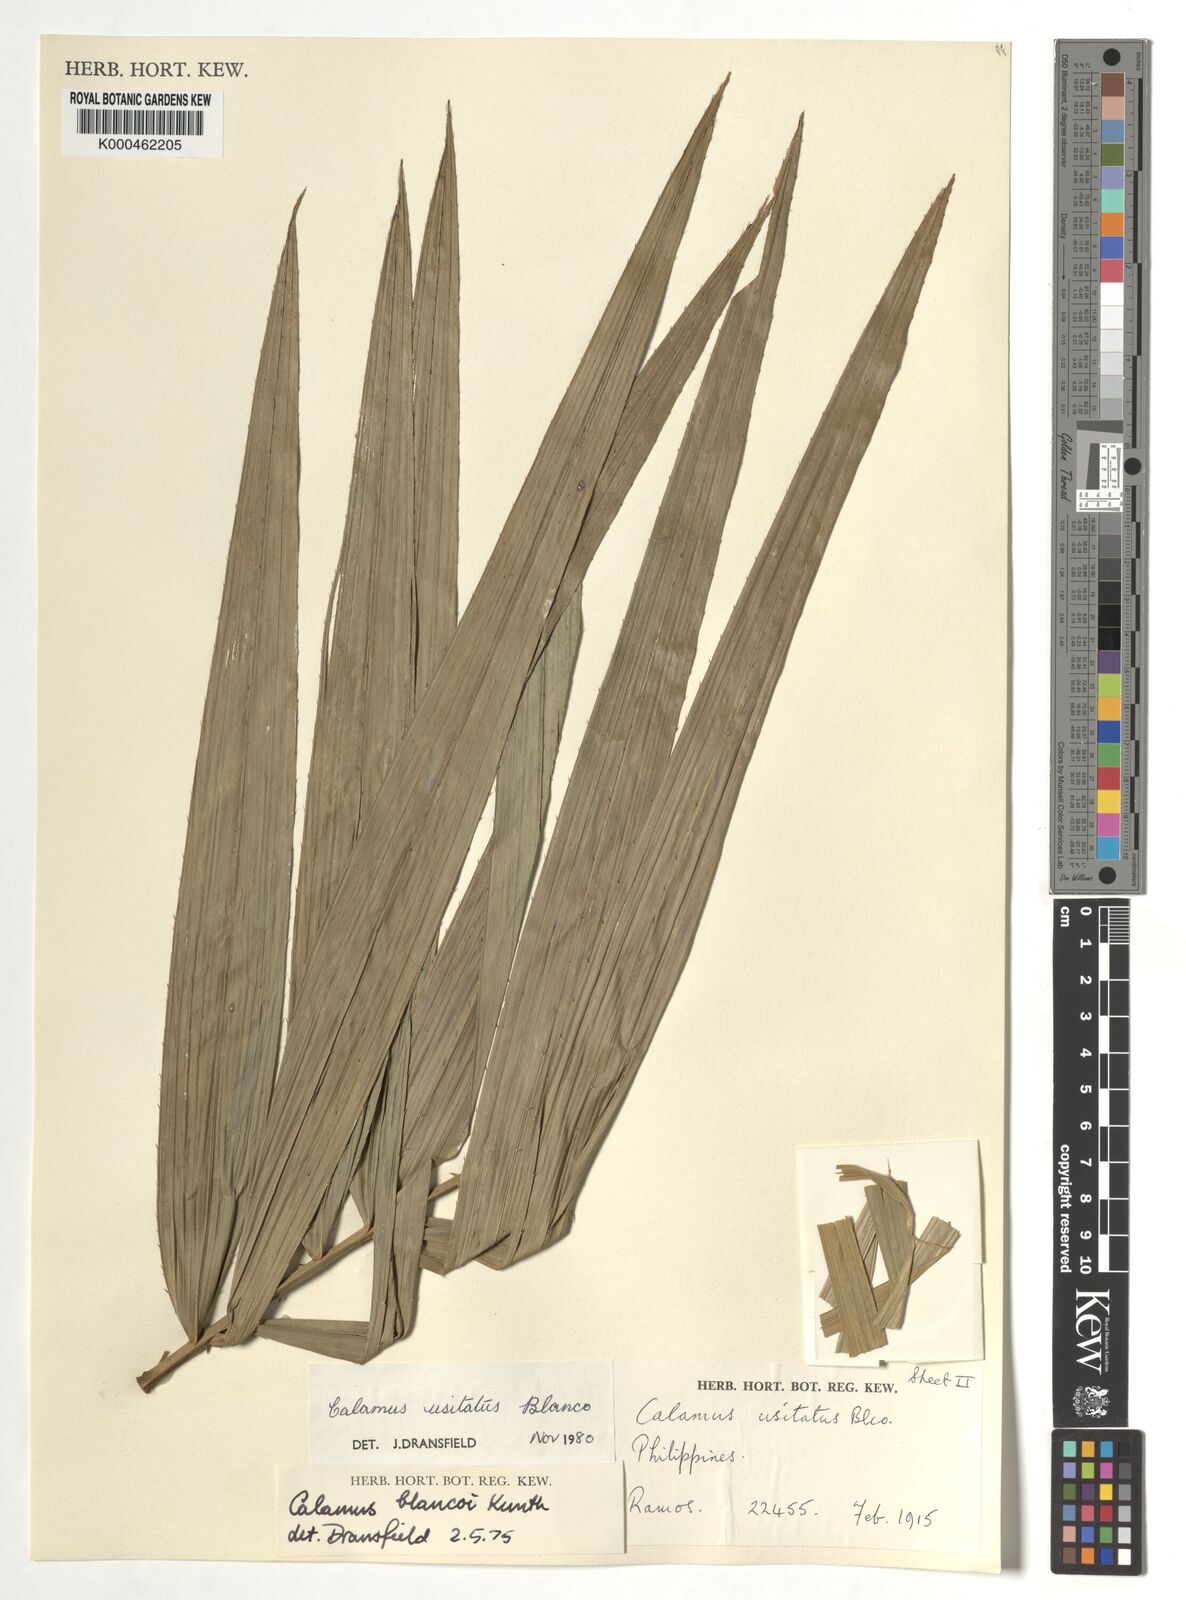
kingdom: Plantae
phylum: Tracheophyta
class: Liliopsida
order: Arecales
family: Arecaceae
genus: Calamus
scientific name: Calamus usitatus
